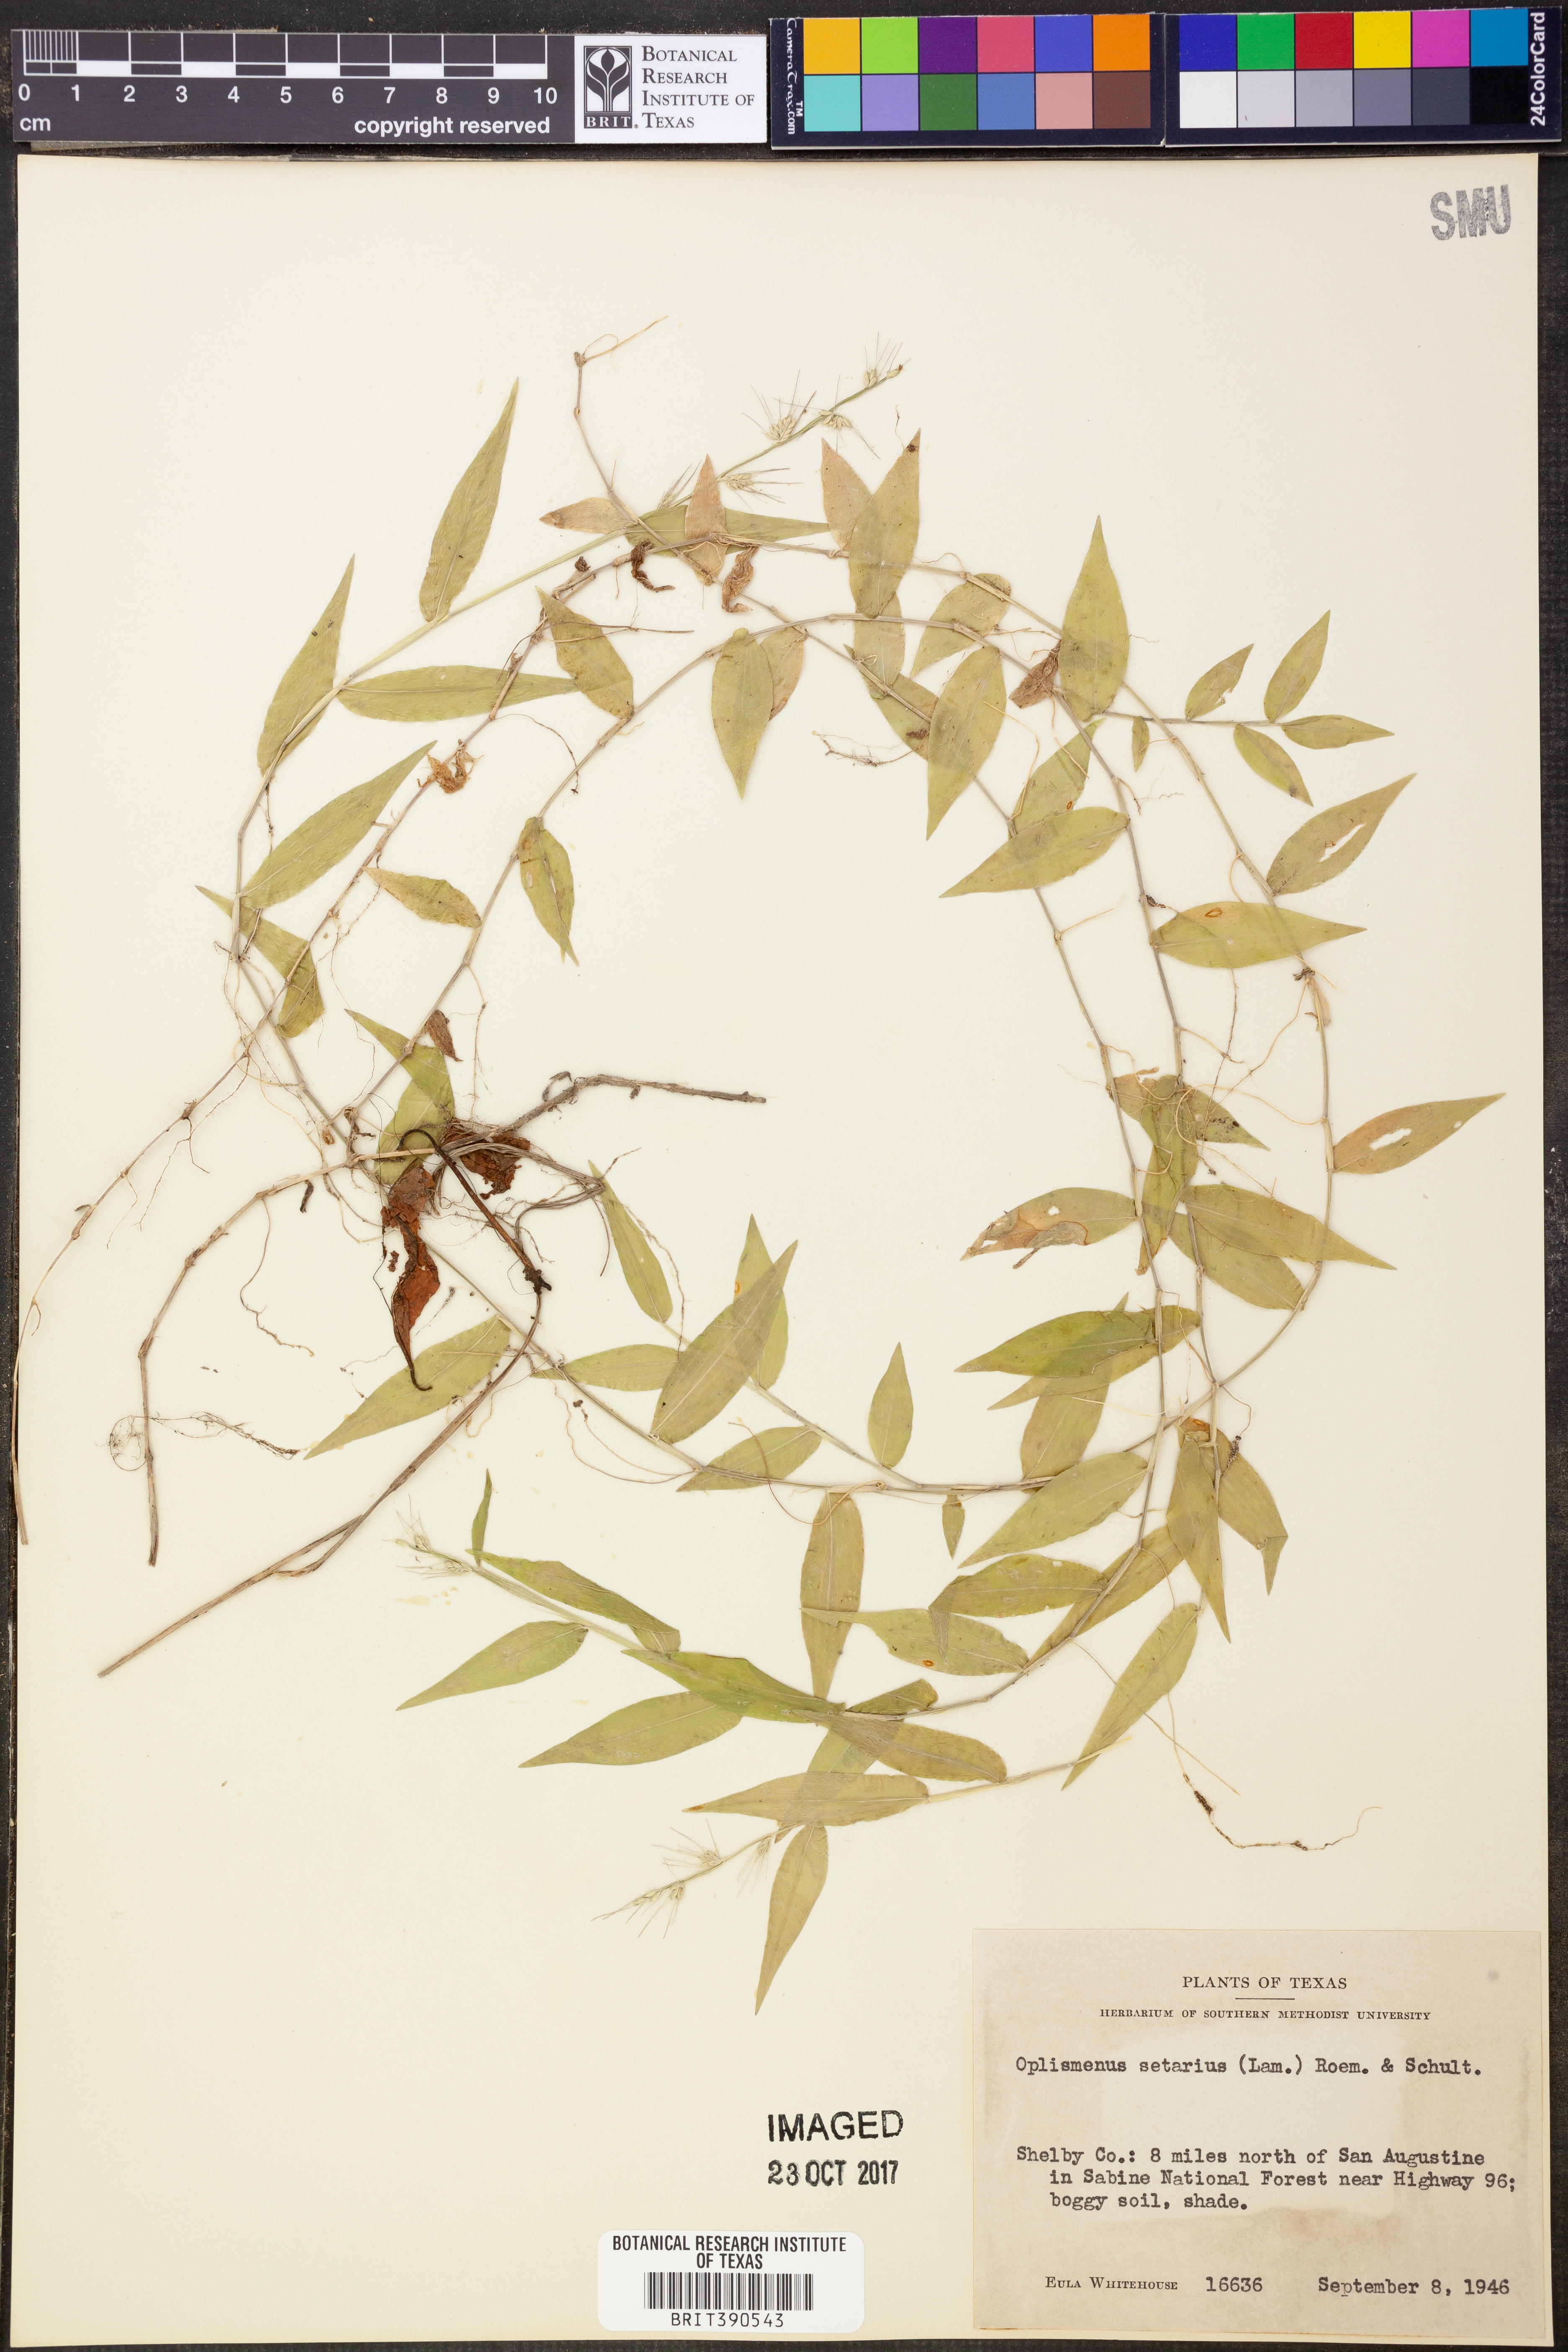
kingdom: Plantae
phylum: Tracheophyta
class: Liliopsida
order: Poales
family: Poaceae
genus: Oplismenus
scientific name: Oplismenus compositus
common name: Running mountain grass
